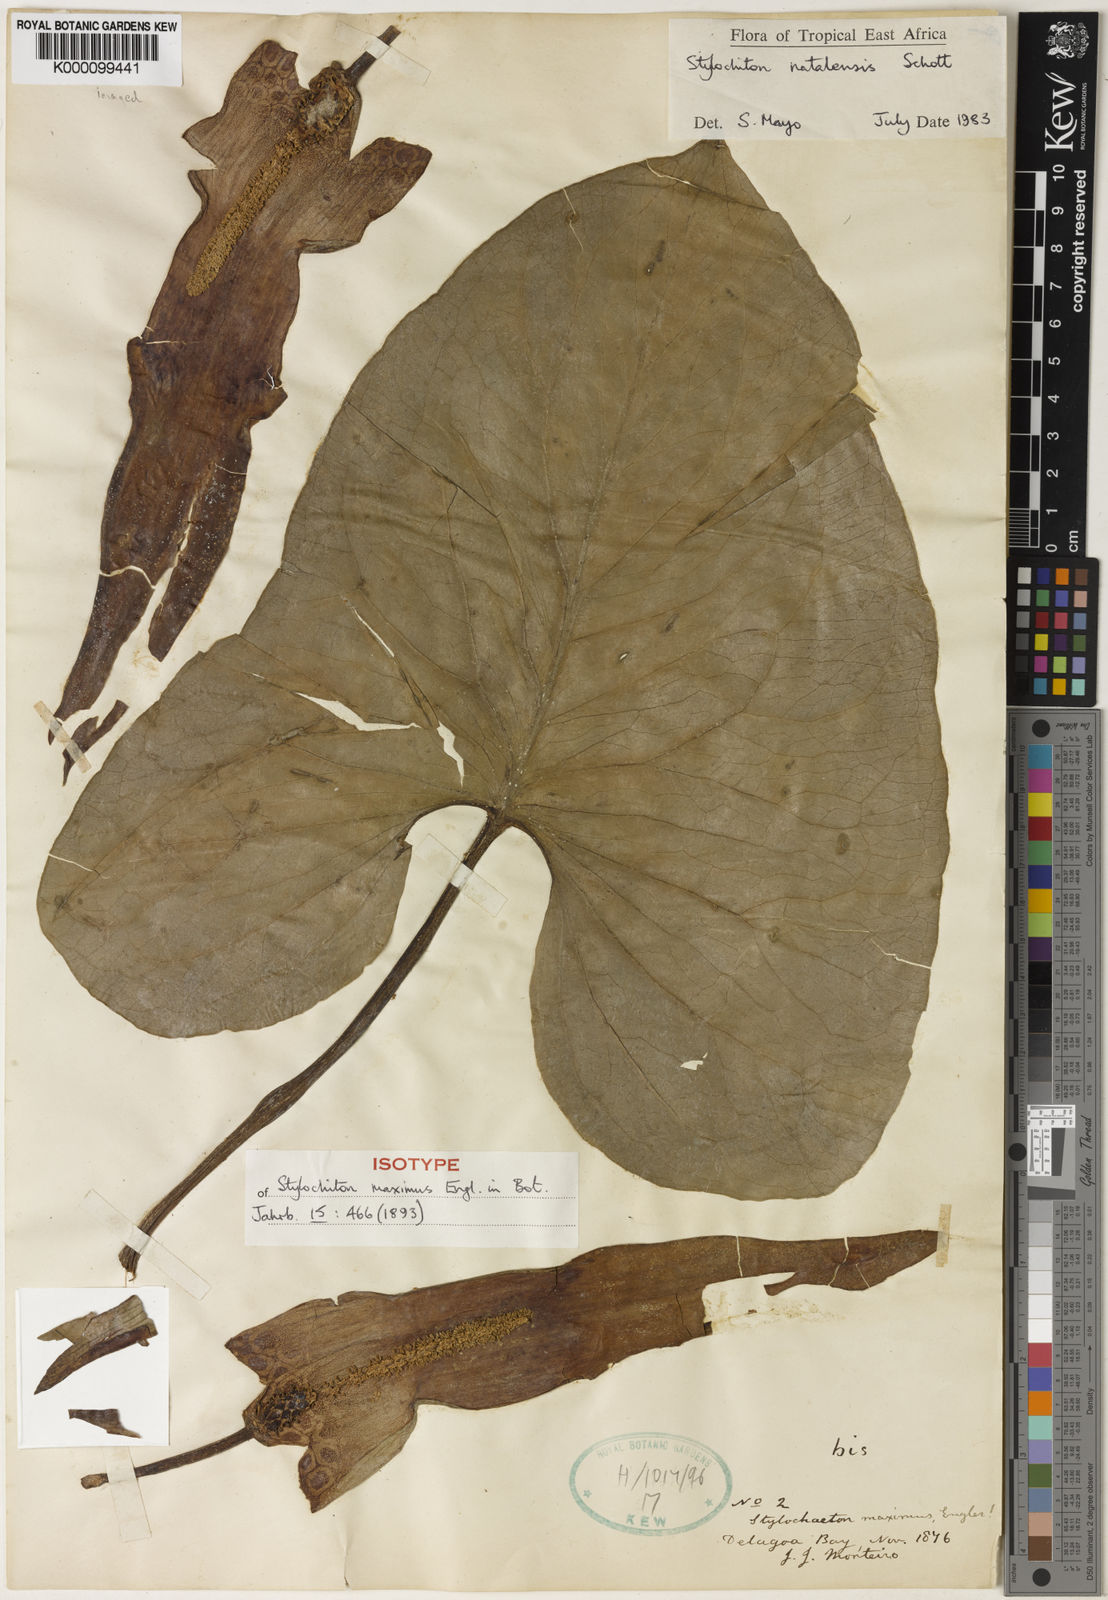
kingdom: Plantae
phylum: Tracheophyta
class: Liliopsida
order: Alismatales
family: Araceae
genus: Stylochaeton
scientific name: Stylochaeton
